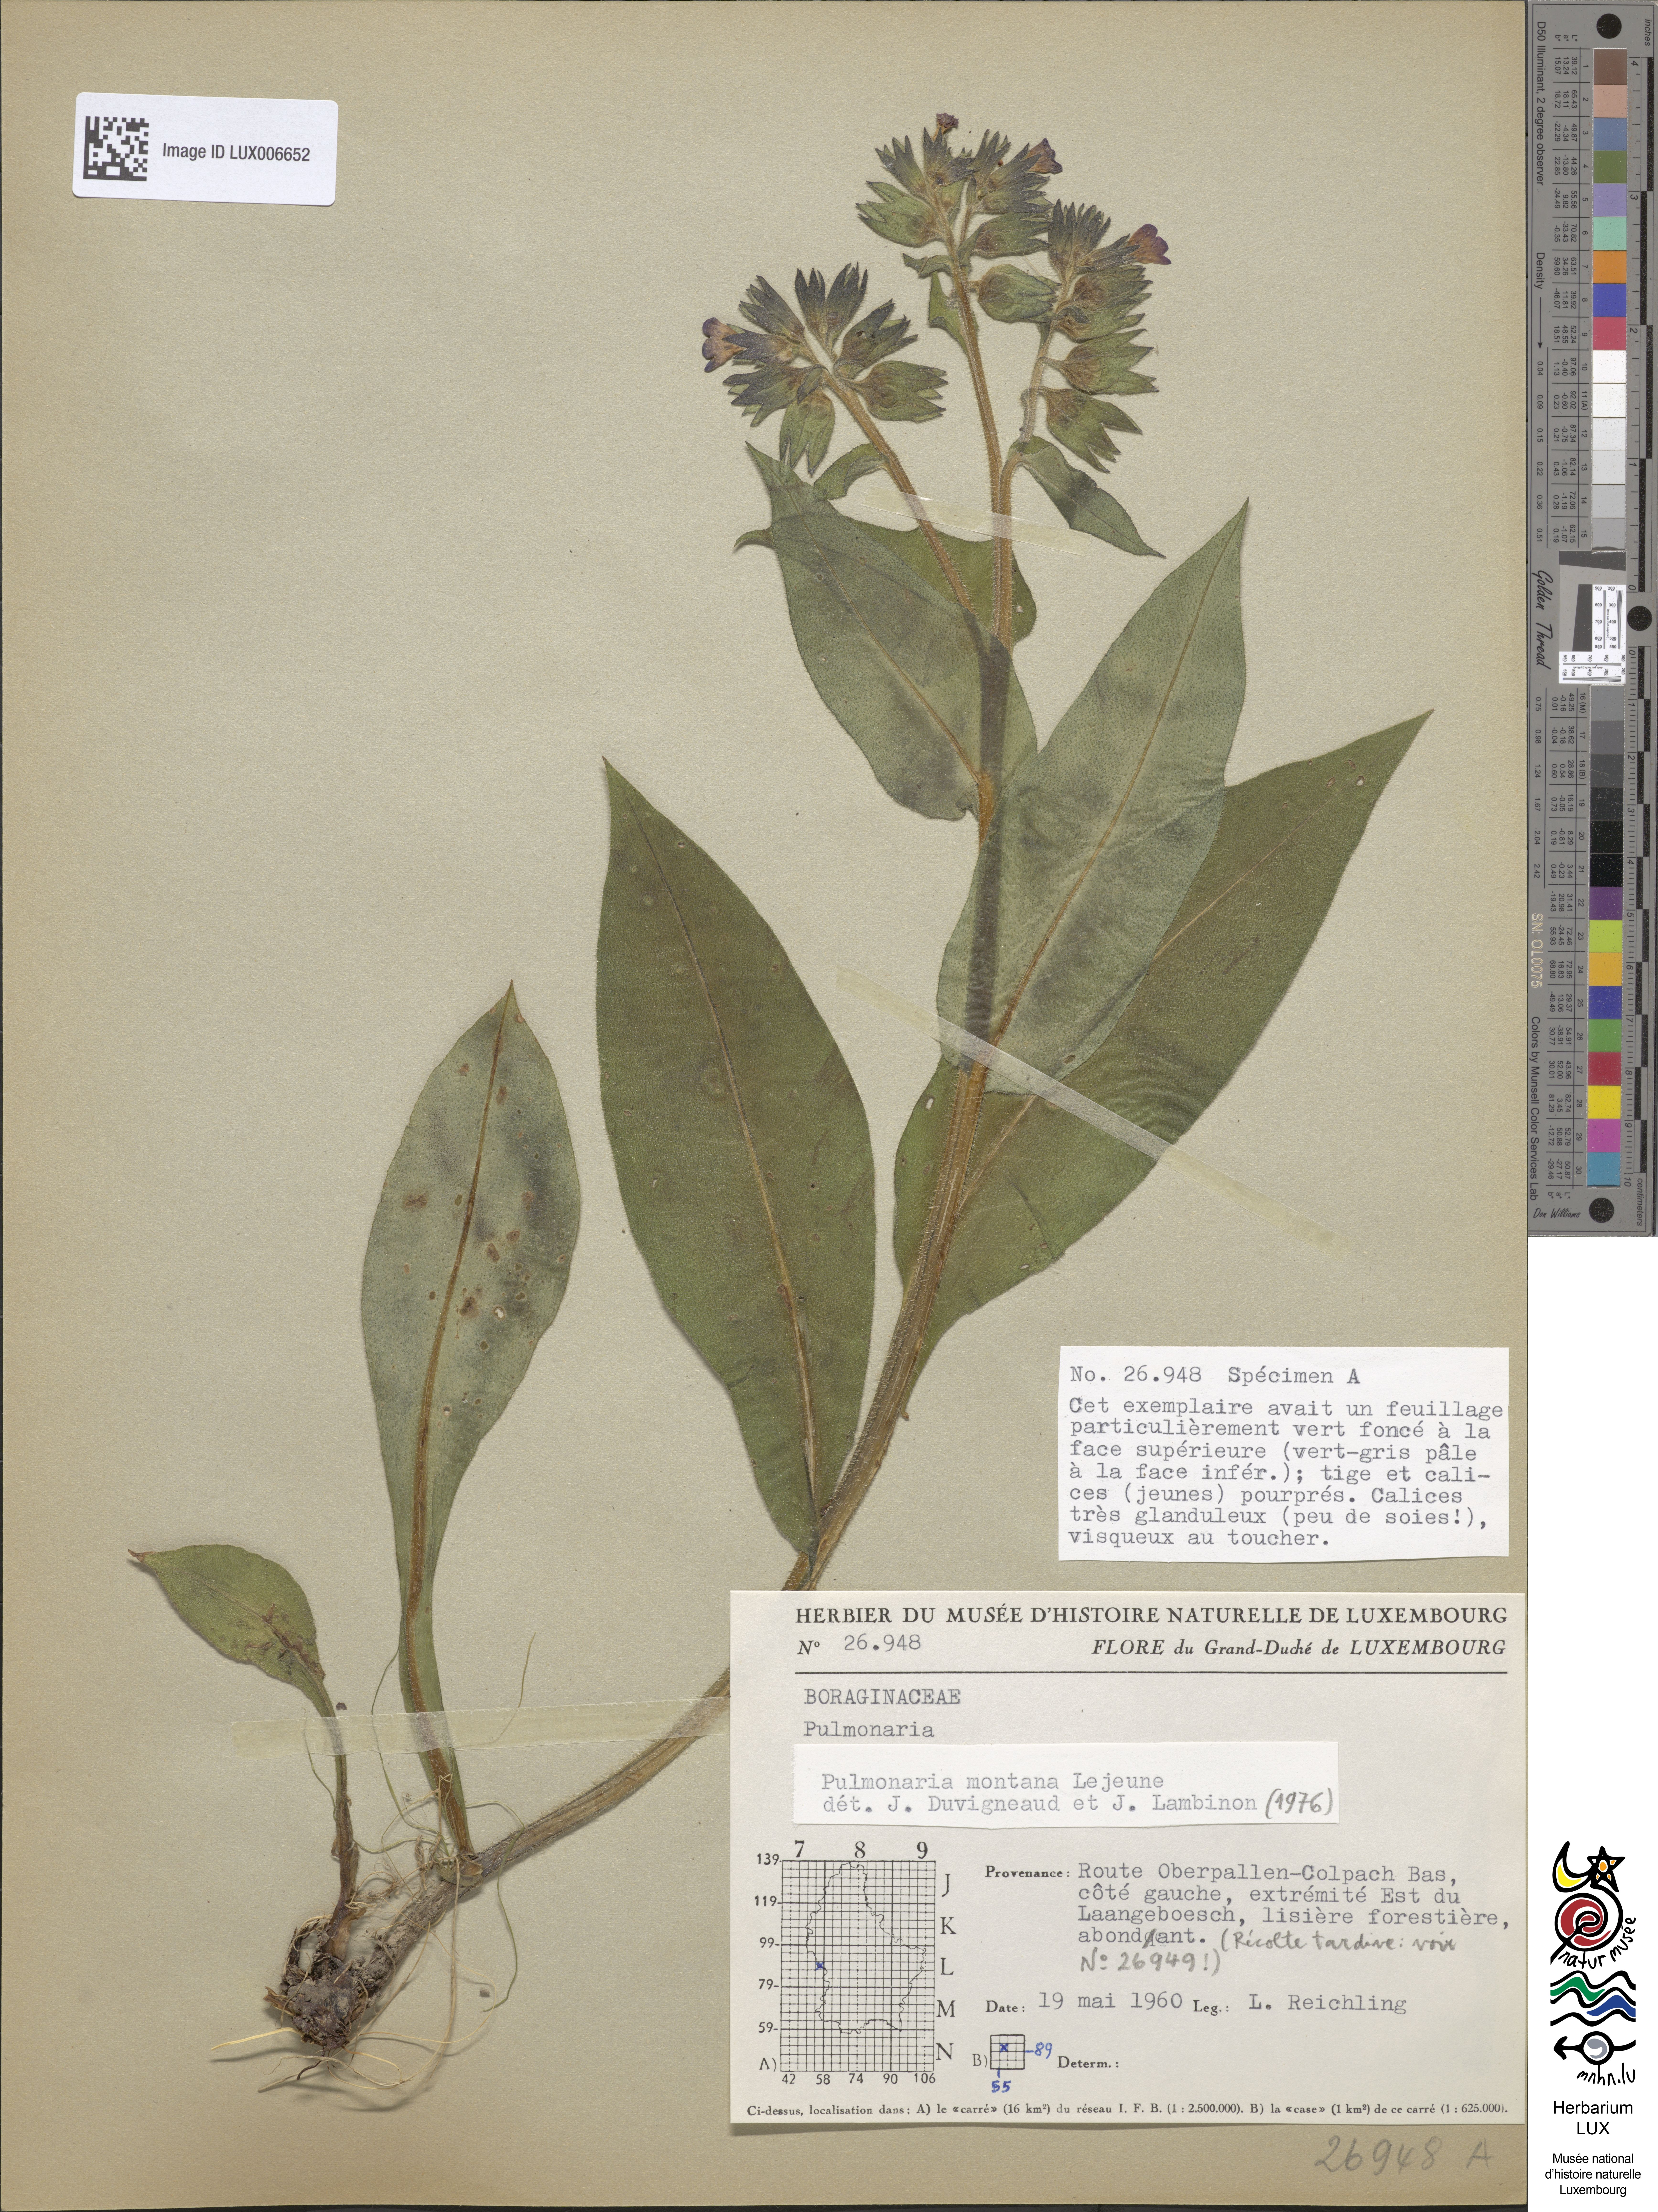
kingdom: Plantae
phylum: Tracheophyta
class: Magnoliopsida
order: Boraginales
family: Boraginaceae
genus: Pulmonaria
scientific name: Pulmonaria montana
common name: Mountain lungwort
